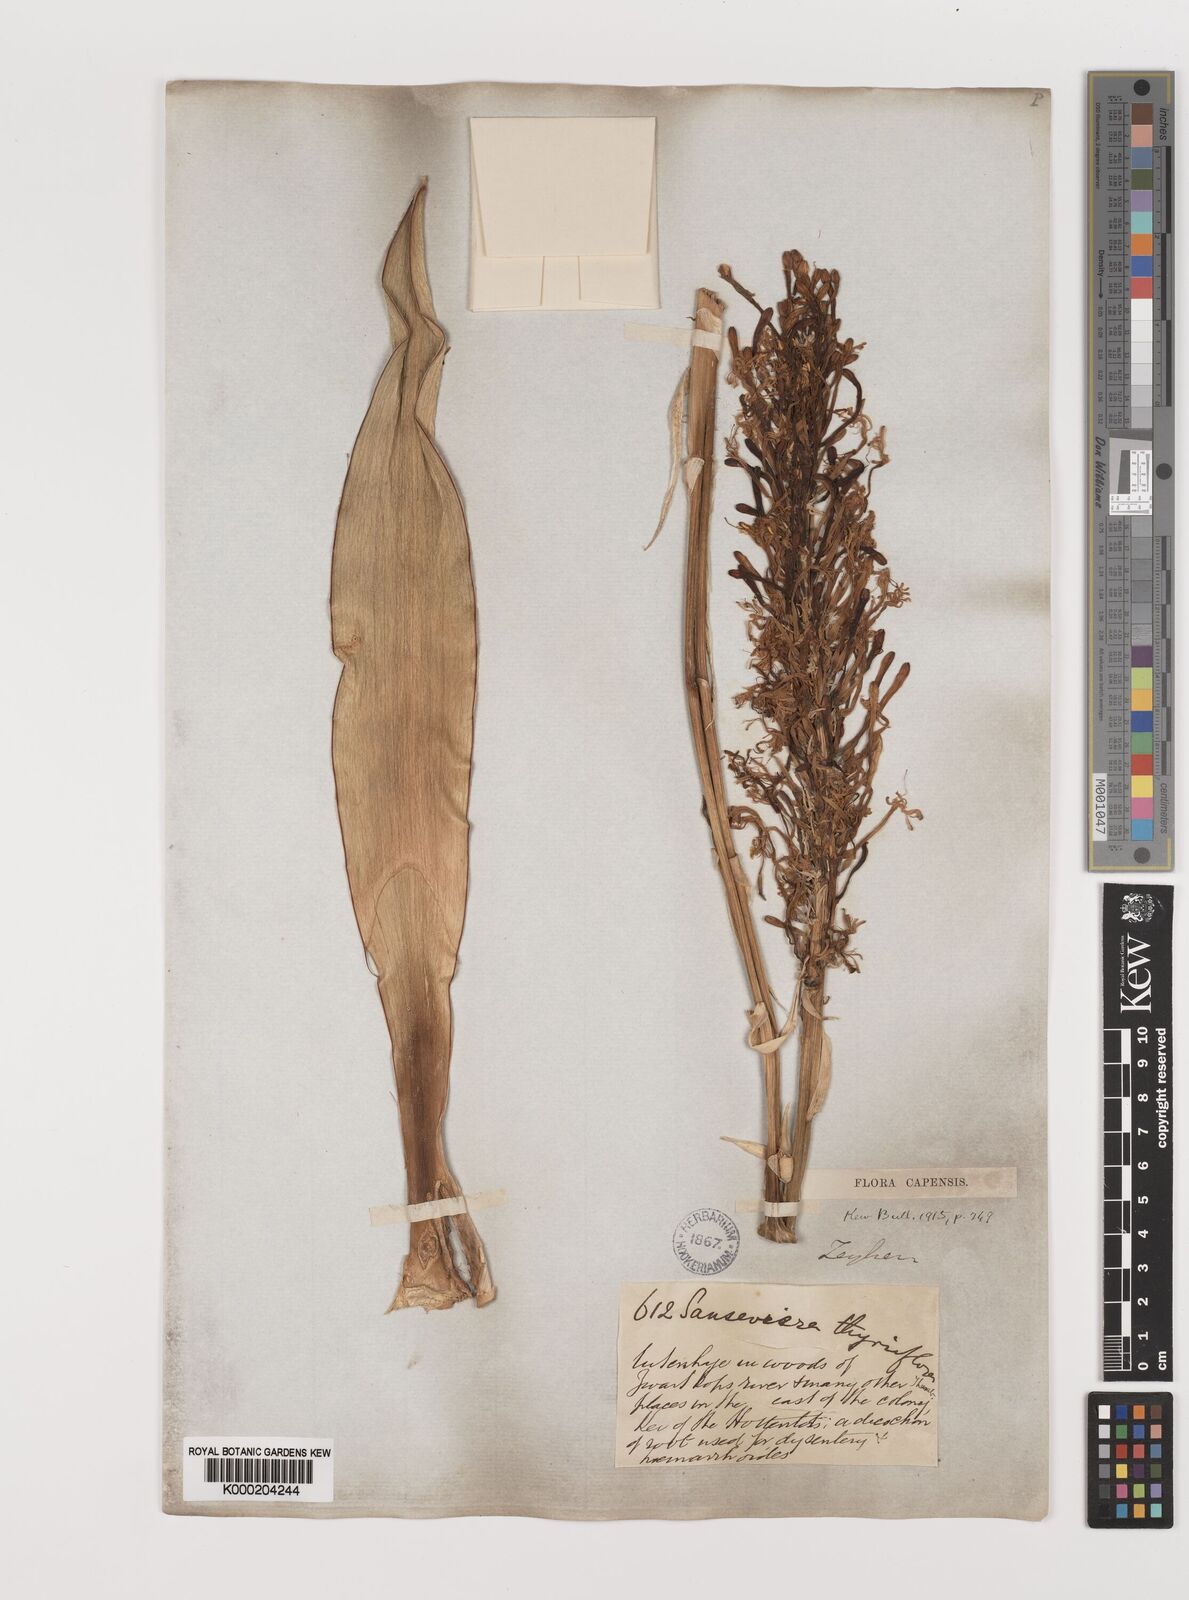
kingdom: Plantae
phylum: Tracheophyta
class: Liliopsida
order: Asparagales
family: Asparagaceae
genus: Dracaena
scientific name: Dracaena hyacinthoides
